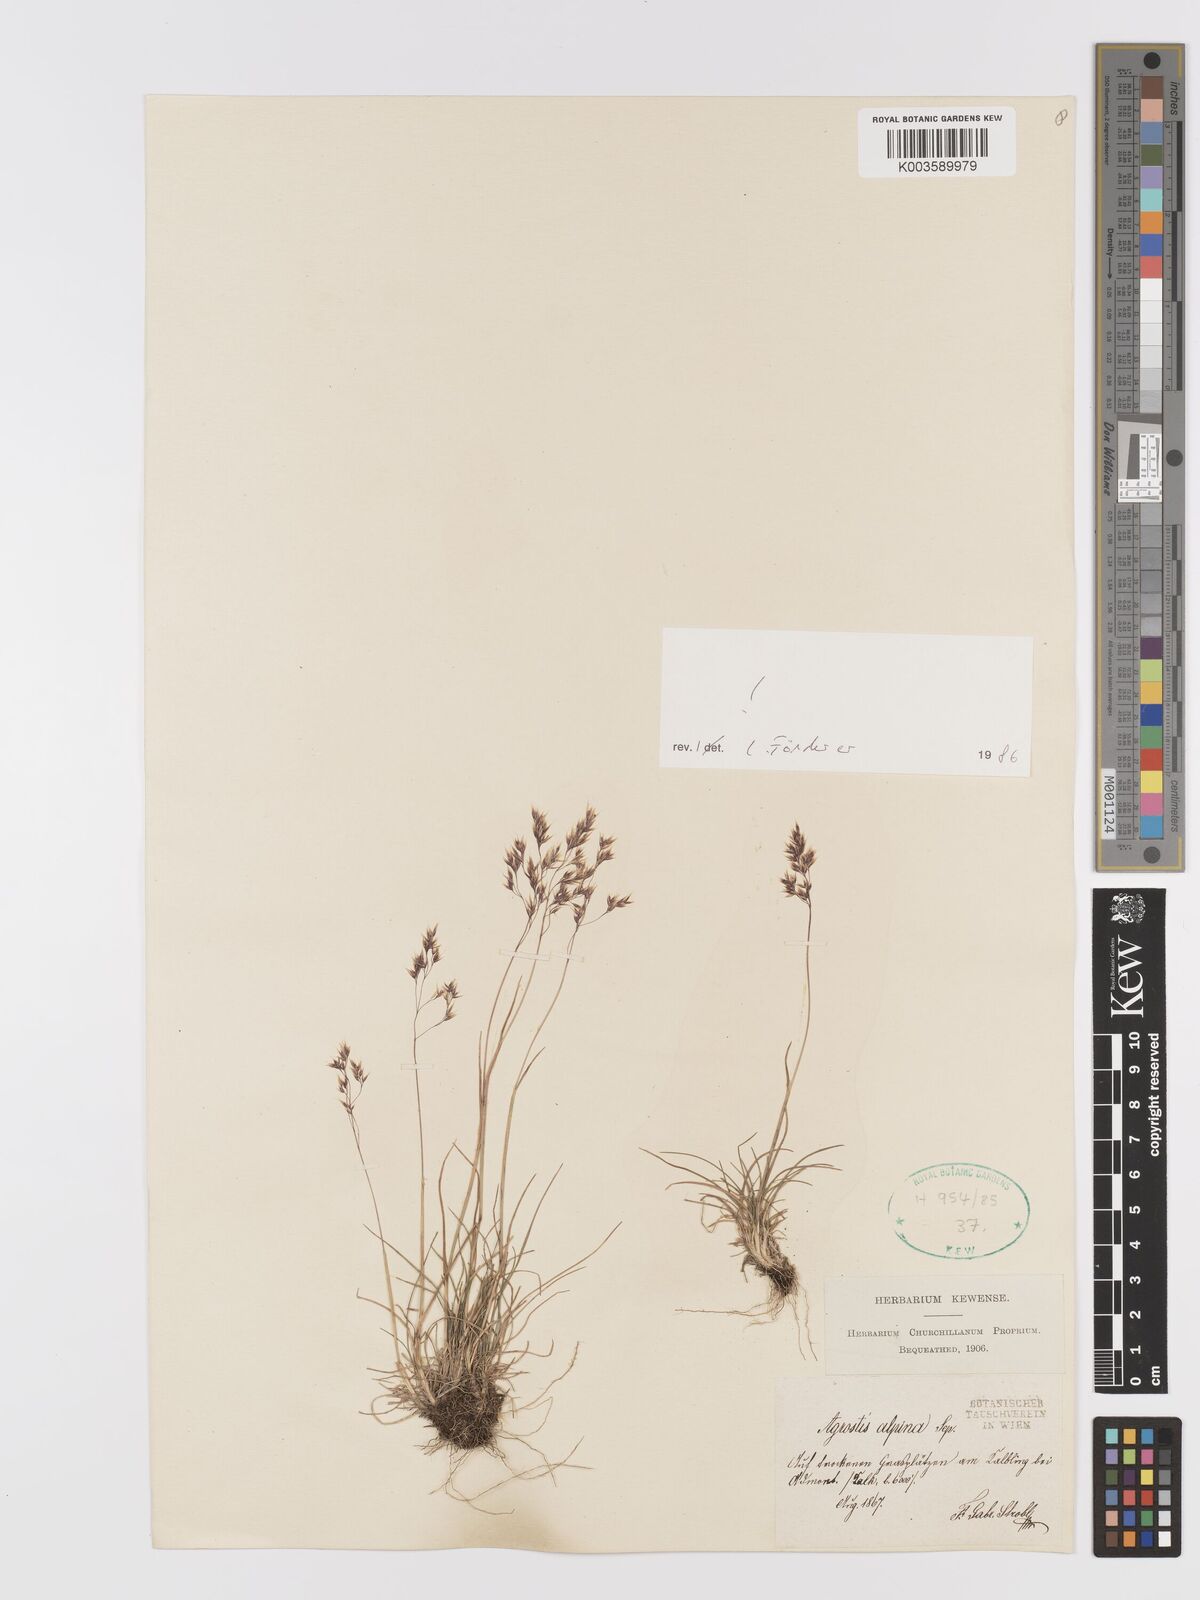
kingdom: Plantae
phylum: Tracheophyta
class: Liliopsida
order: Poales
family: Poaceae
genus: Alpagrostis
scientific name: Alpagrostis alpina
